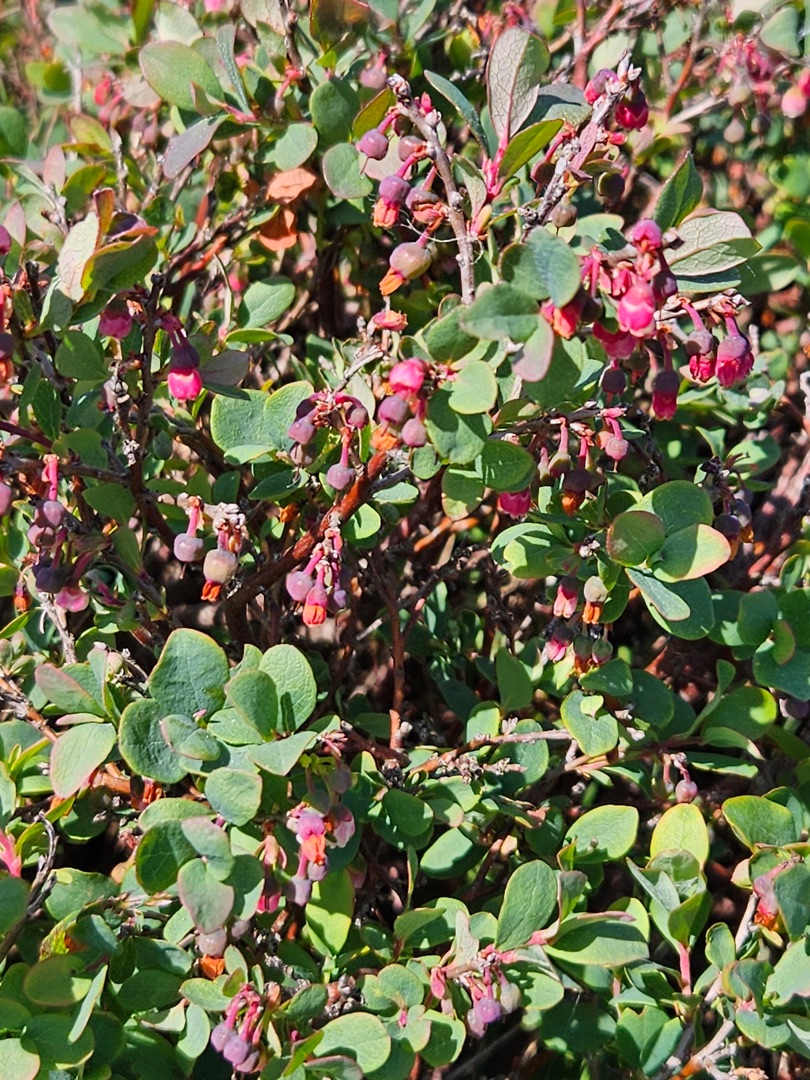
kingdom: Plantae
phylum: Tracheophyta
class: Magnoliopsida
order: Ericales
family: Ericaceae
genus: Vaccinium
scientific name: Vaccinium uliginosum
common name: Mose-bølle
